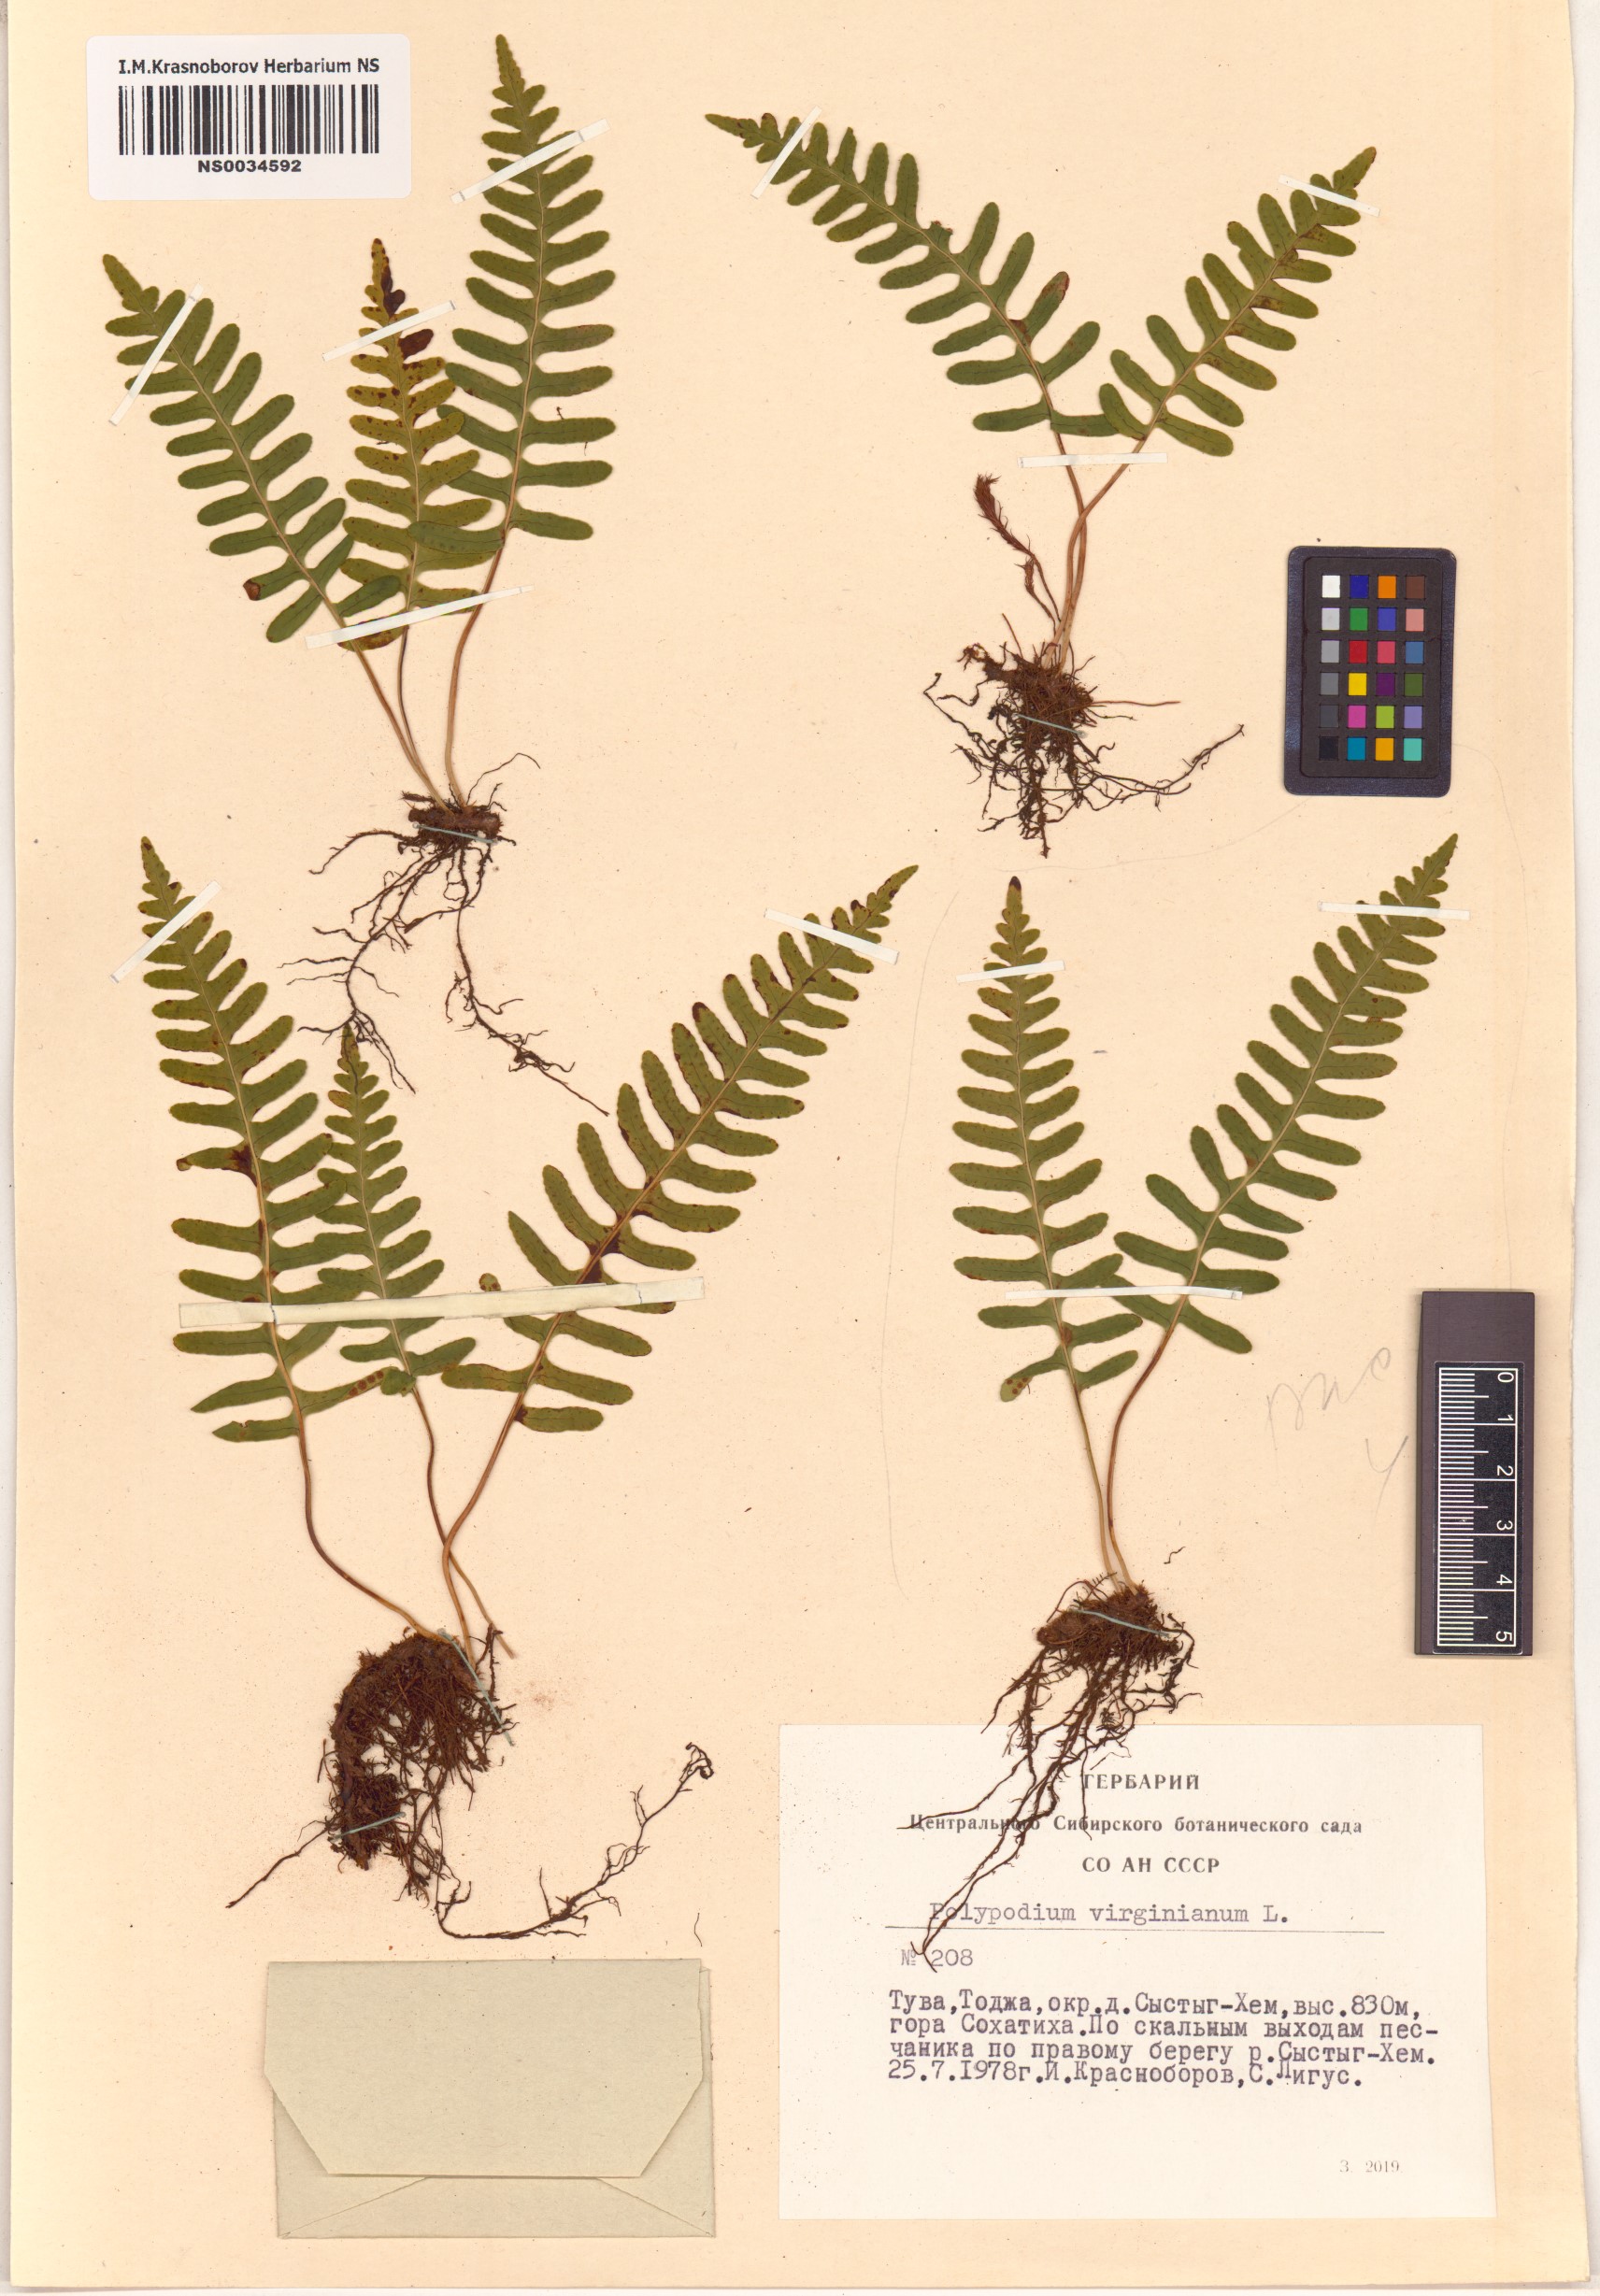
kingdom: Plantae
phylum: Tracheophyta
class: Polypodiopsida
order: Polypodiales
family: Polypodiaceae
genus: Polypodium
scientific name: Polypodium virginianum
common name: American wall fern
